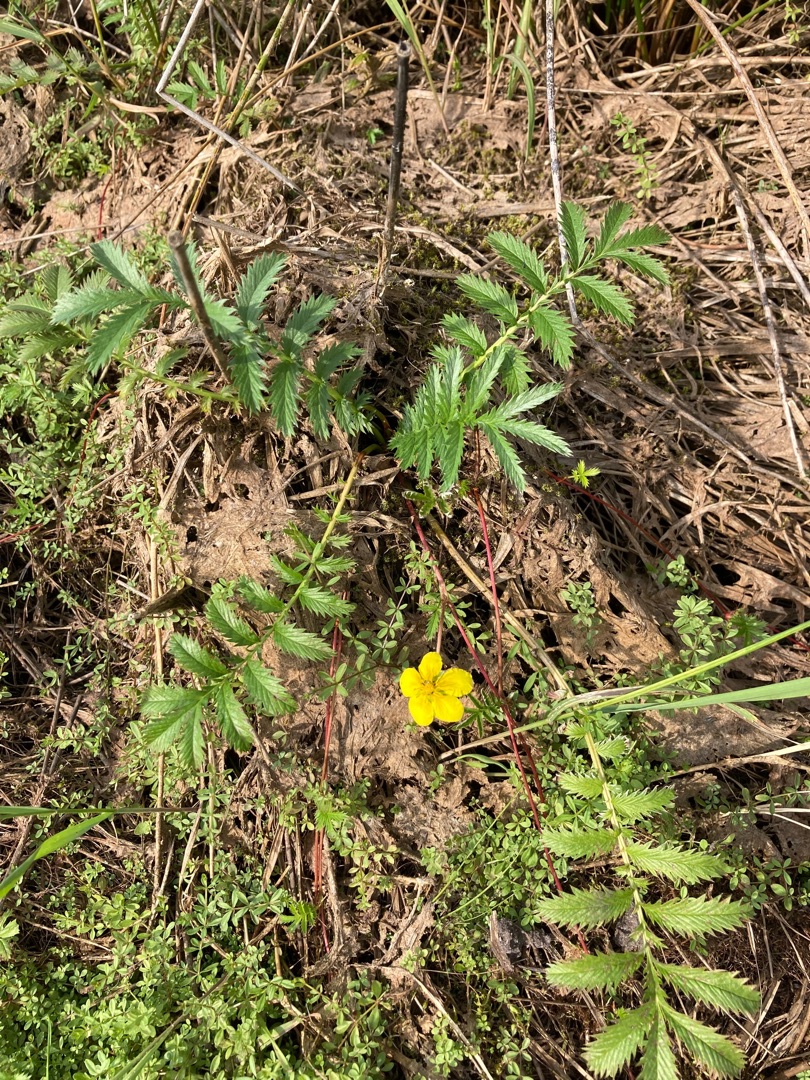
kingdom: Plantae
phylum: Tracheophyta
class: Magnoliopsida
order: Rosales
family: Rosaceae
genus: Argentina
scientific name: Argentina anserina
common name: Gåsepotentil
